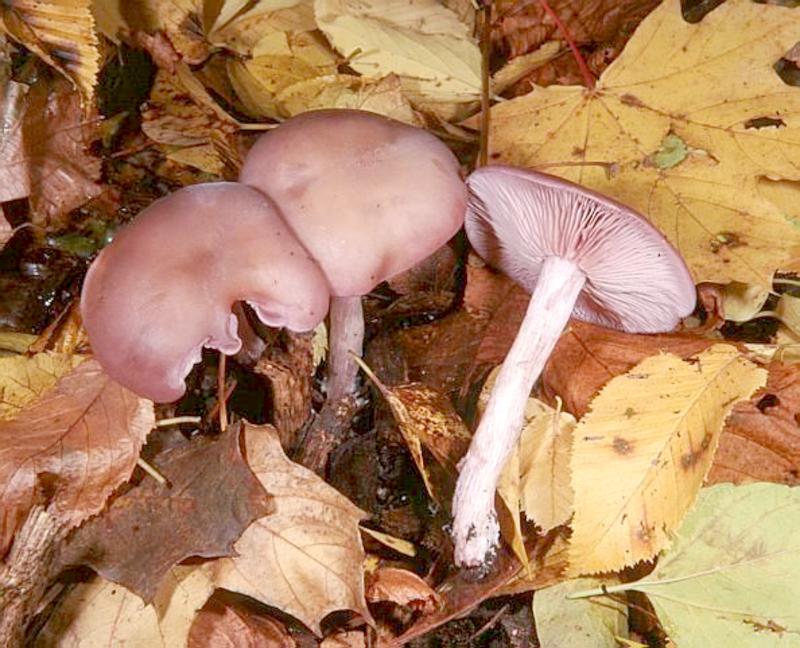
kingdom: Fungi
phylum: Basidiomycota
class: Agaricomycetes
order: Agaricales
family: Tricholomataceae
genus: Lepista
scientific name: Lepista nuda
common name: Wood blewit
